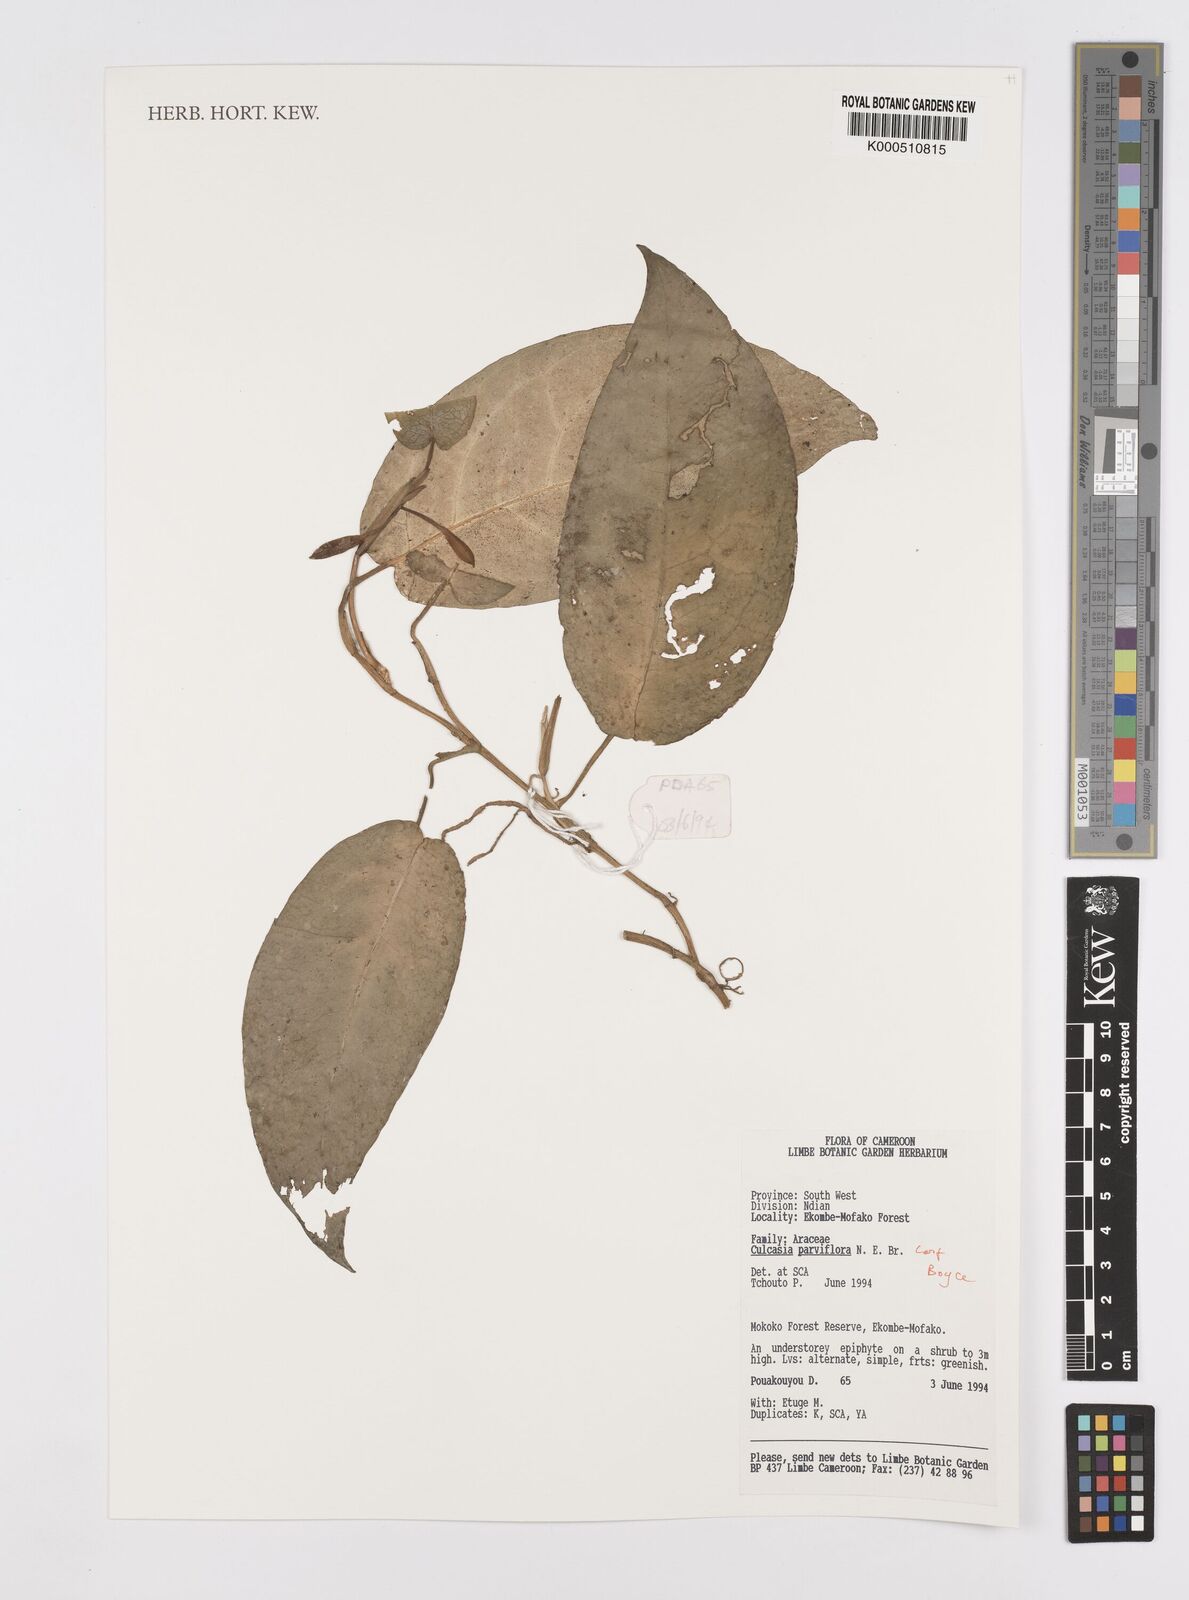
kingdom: Plantae
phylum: Tracheophyta
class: Liliopsida
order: Alismatales
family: Araceae
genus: Culcasia
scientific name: Culcasia parviflora
